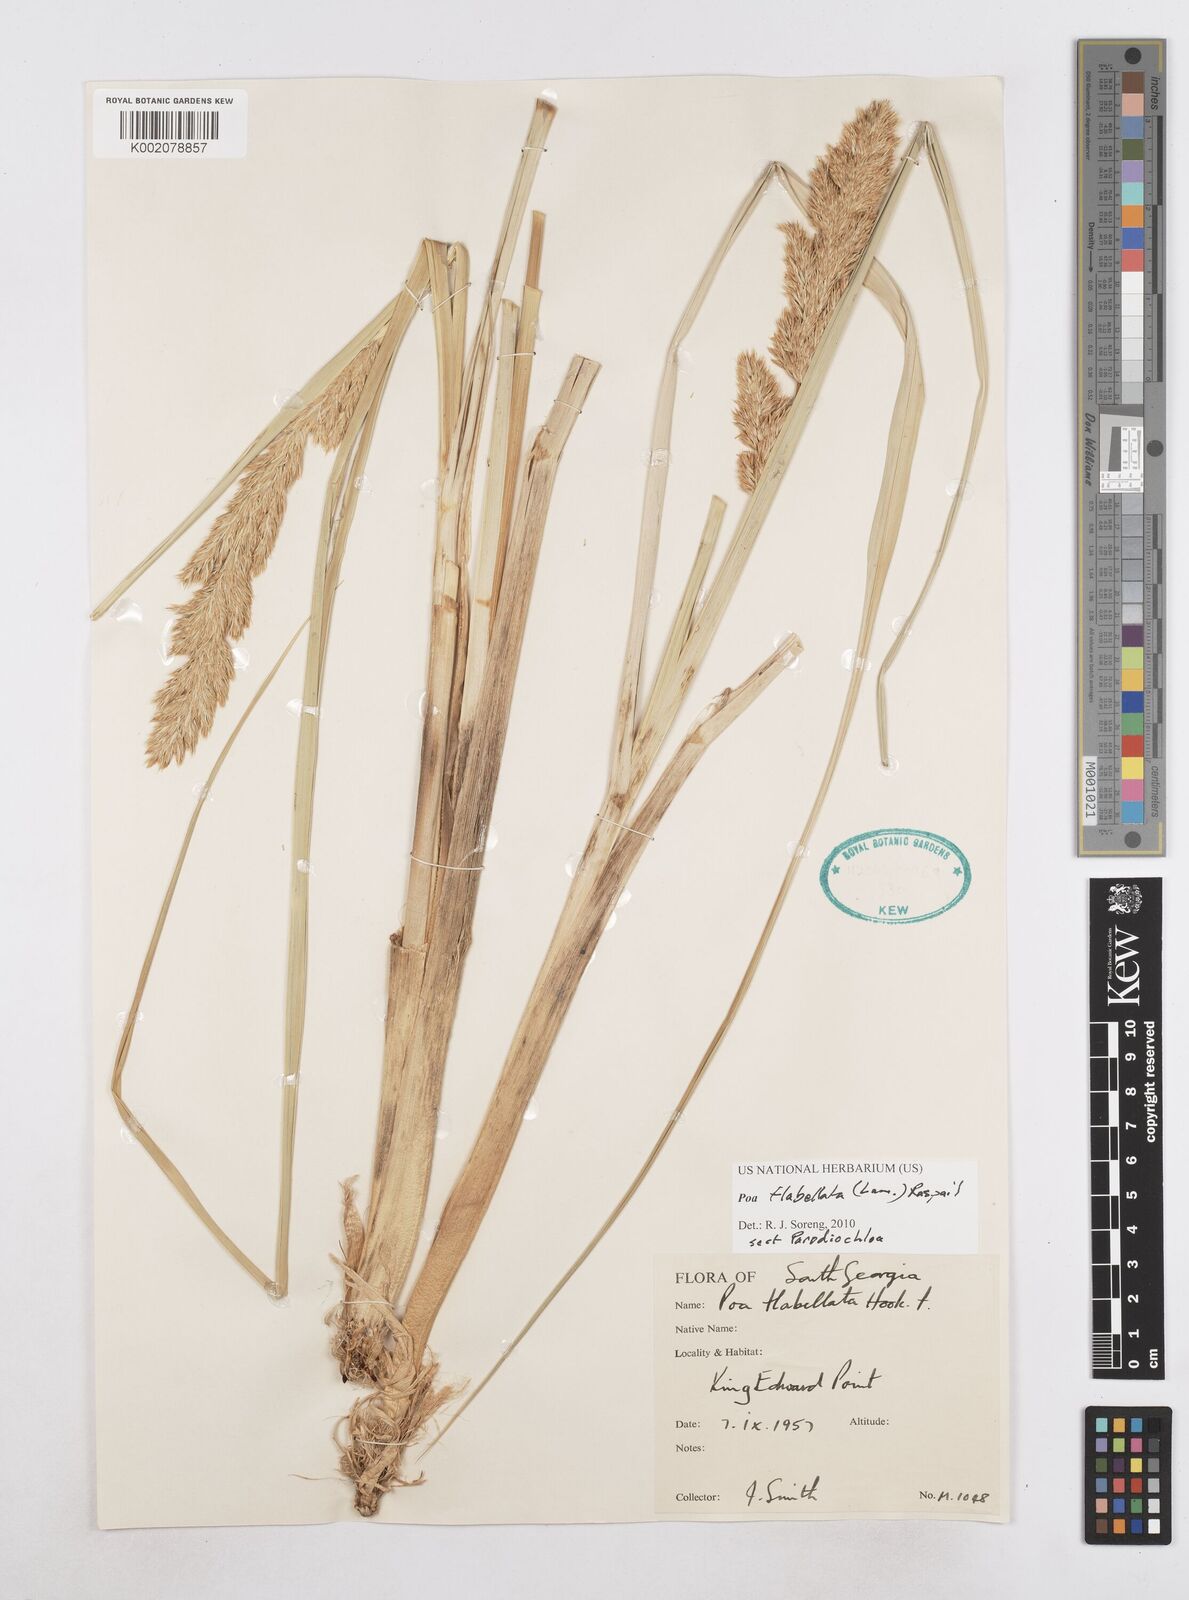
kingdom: Plantae
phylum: Tracheophyta
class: Liliopsida
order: Poales
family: Poaceae
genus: Poa
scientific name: Poa flabellata
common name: Tussac-grass
